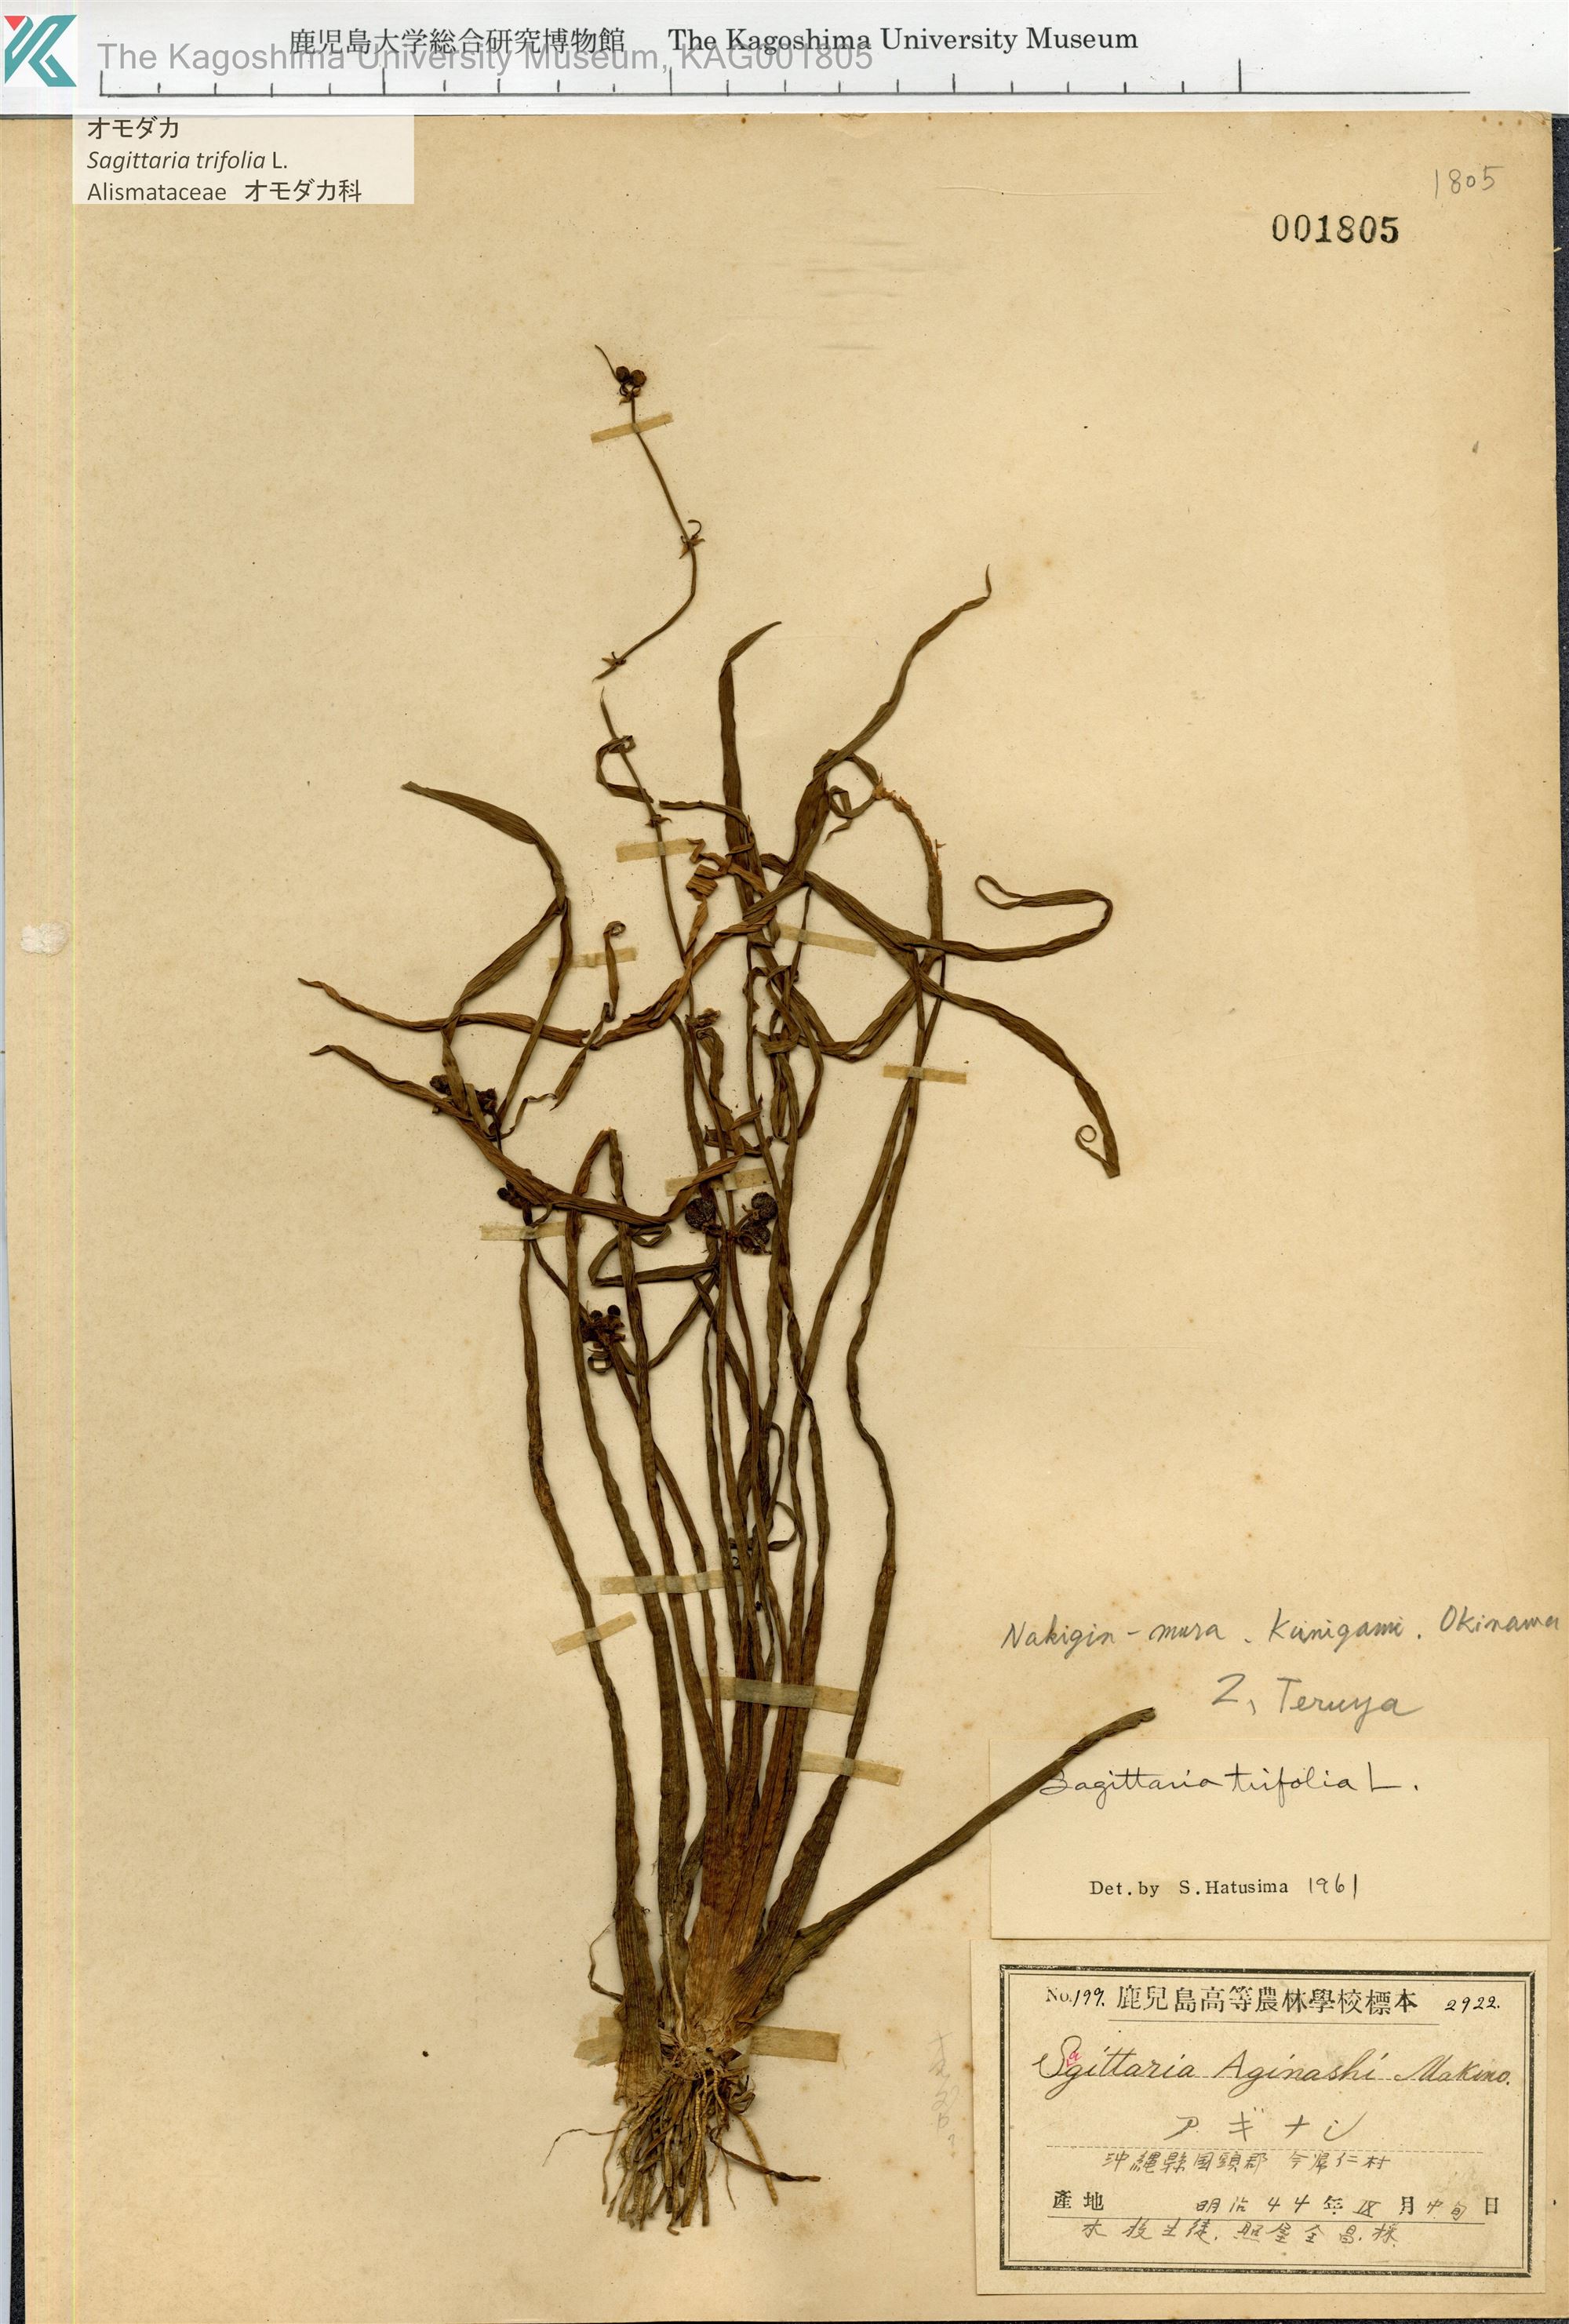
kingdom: Plantae
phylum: Tracheophyta
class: Liliopsida
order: Alismatales
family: Alismataceae
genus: Sagittaria
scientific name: Sagittaria trifolia
